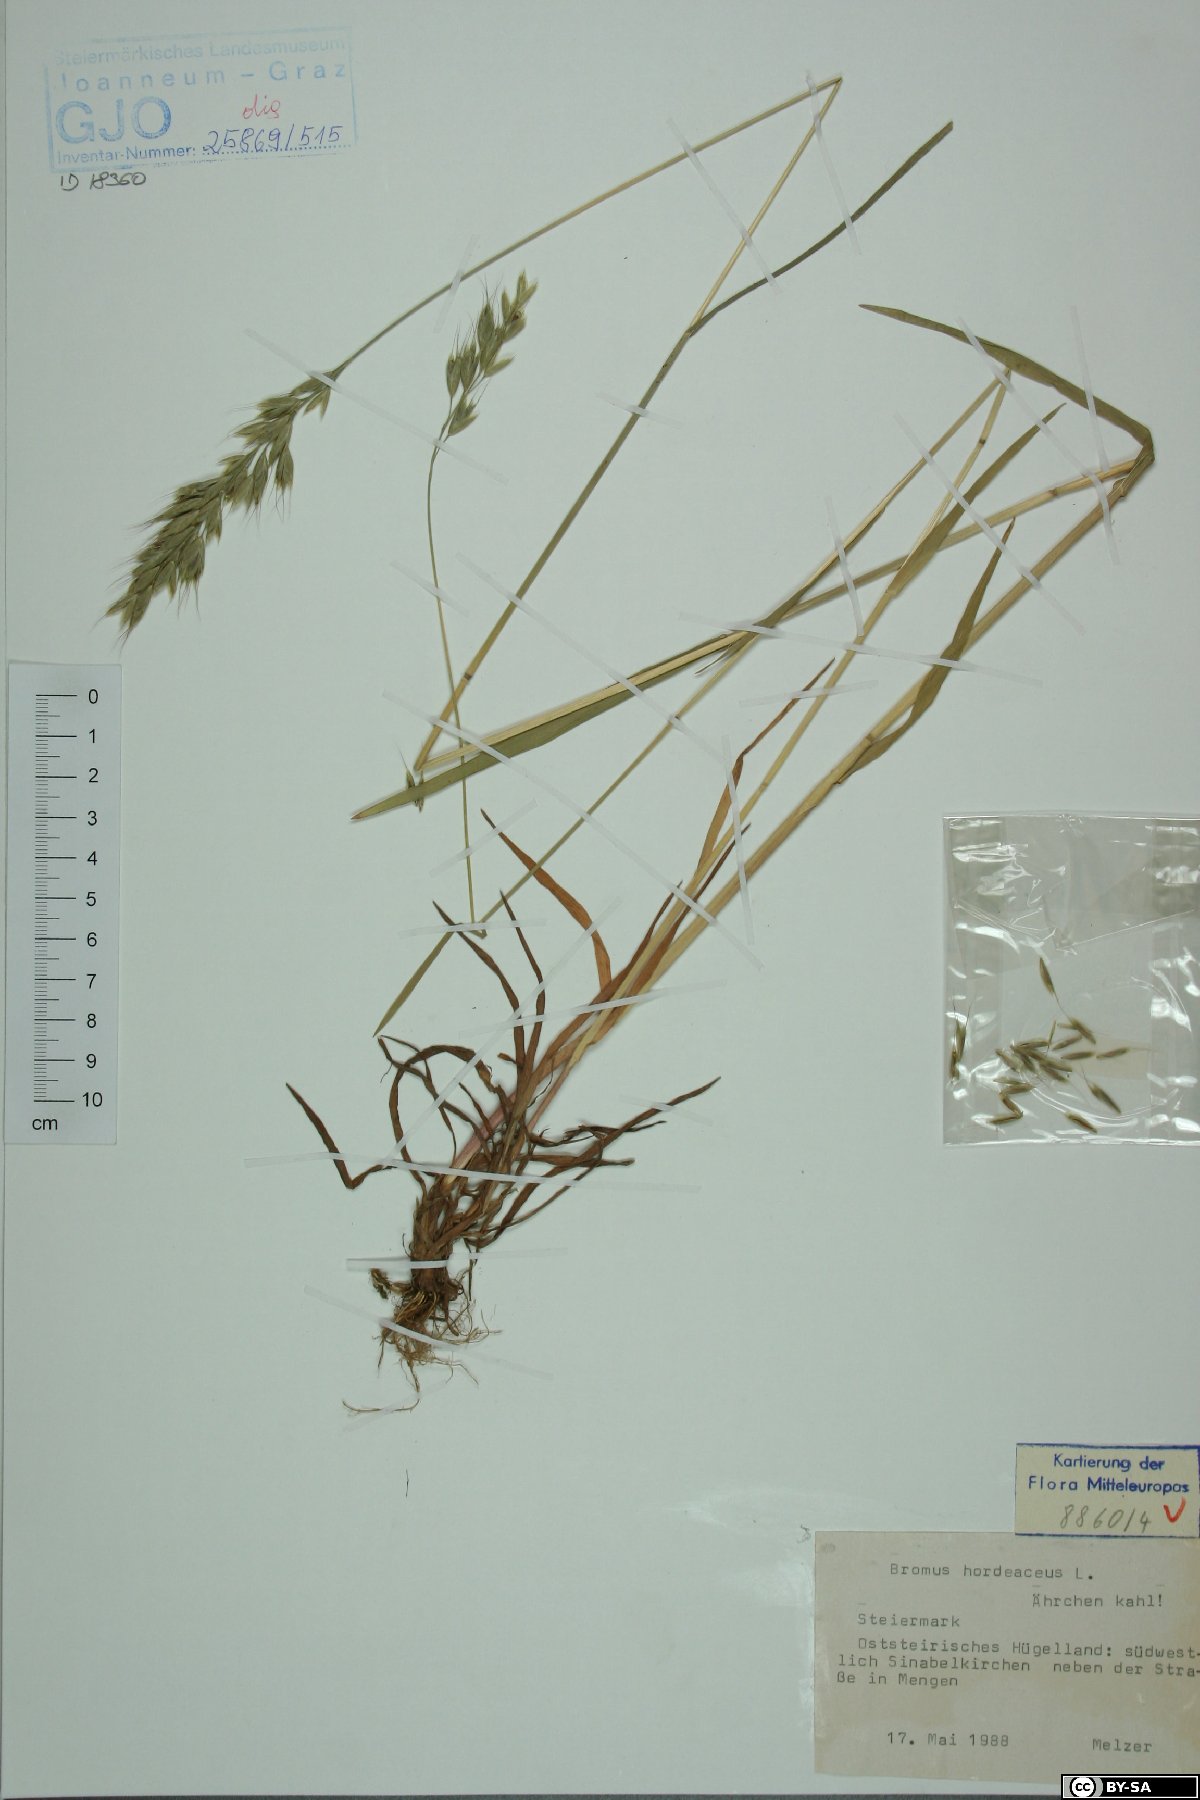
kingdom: Plantae
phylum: Tracheophyta
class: Liliopsida
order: Poales
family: Poaceae
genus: Bromus
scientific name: Bromus hordeaceus
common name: Soft brome
